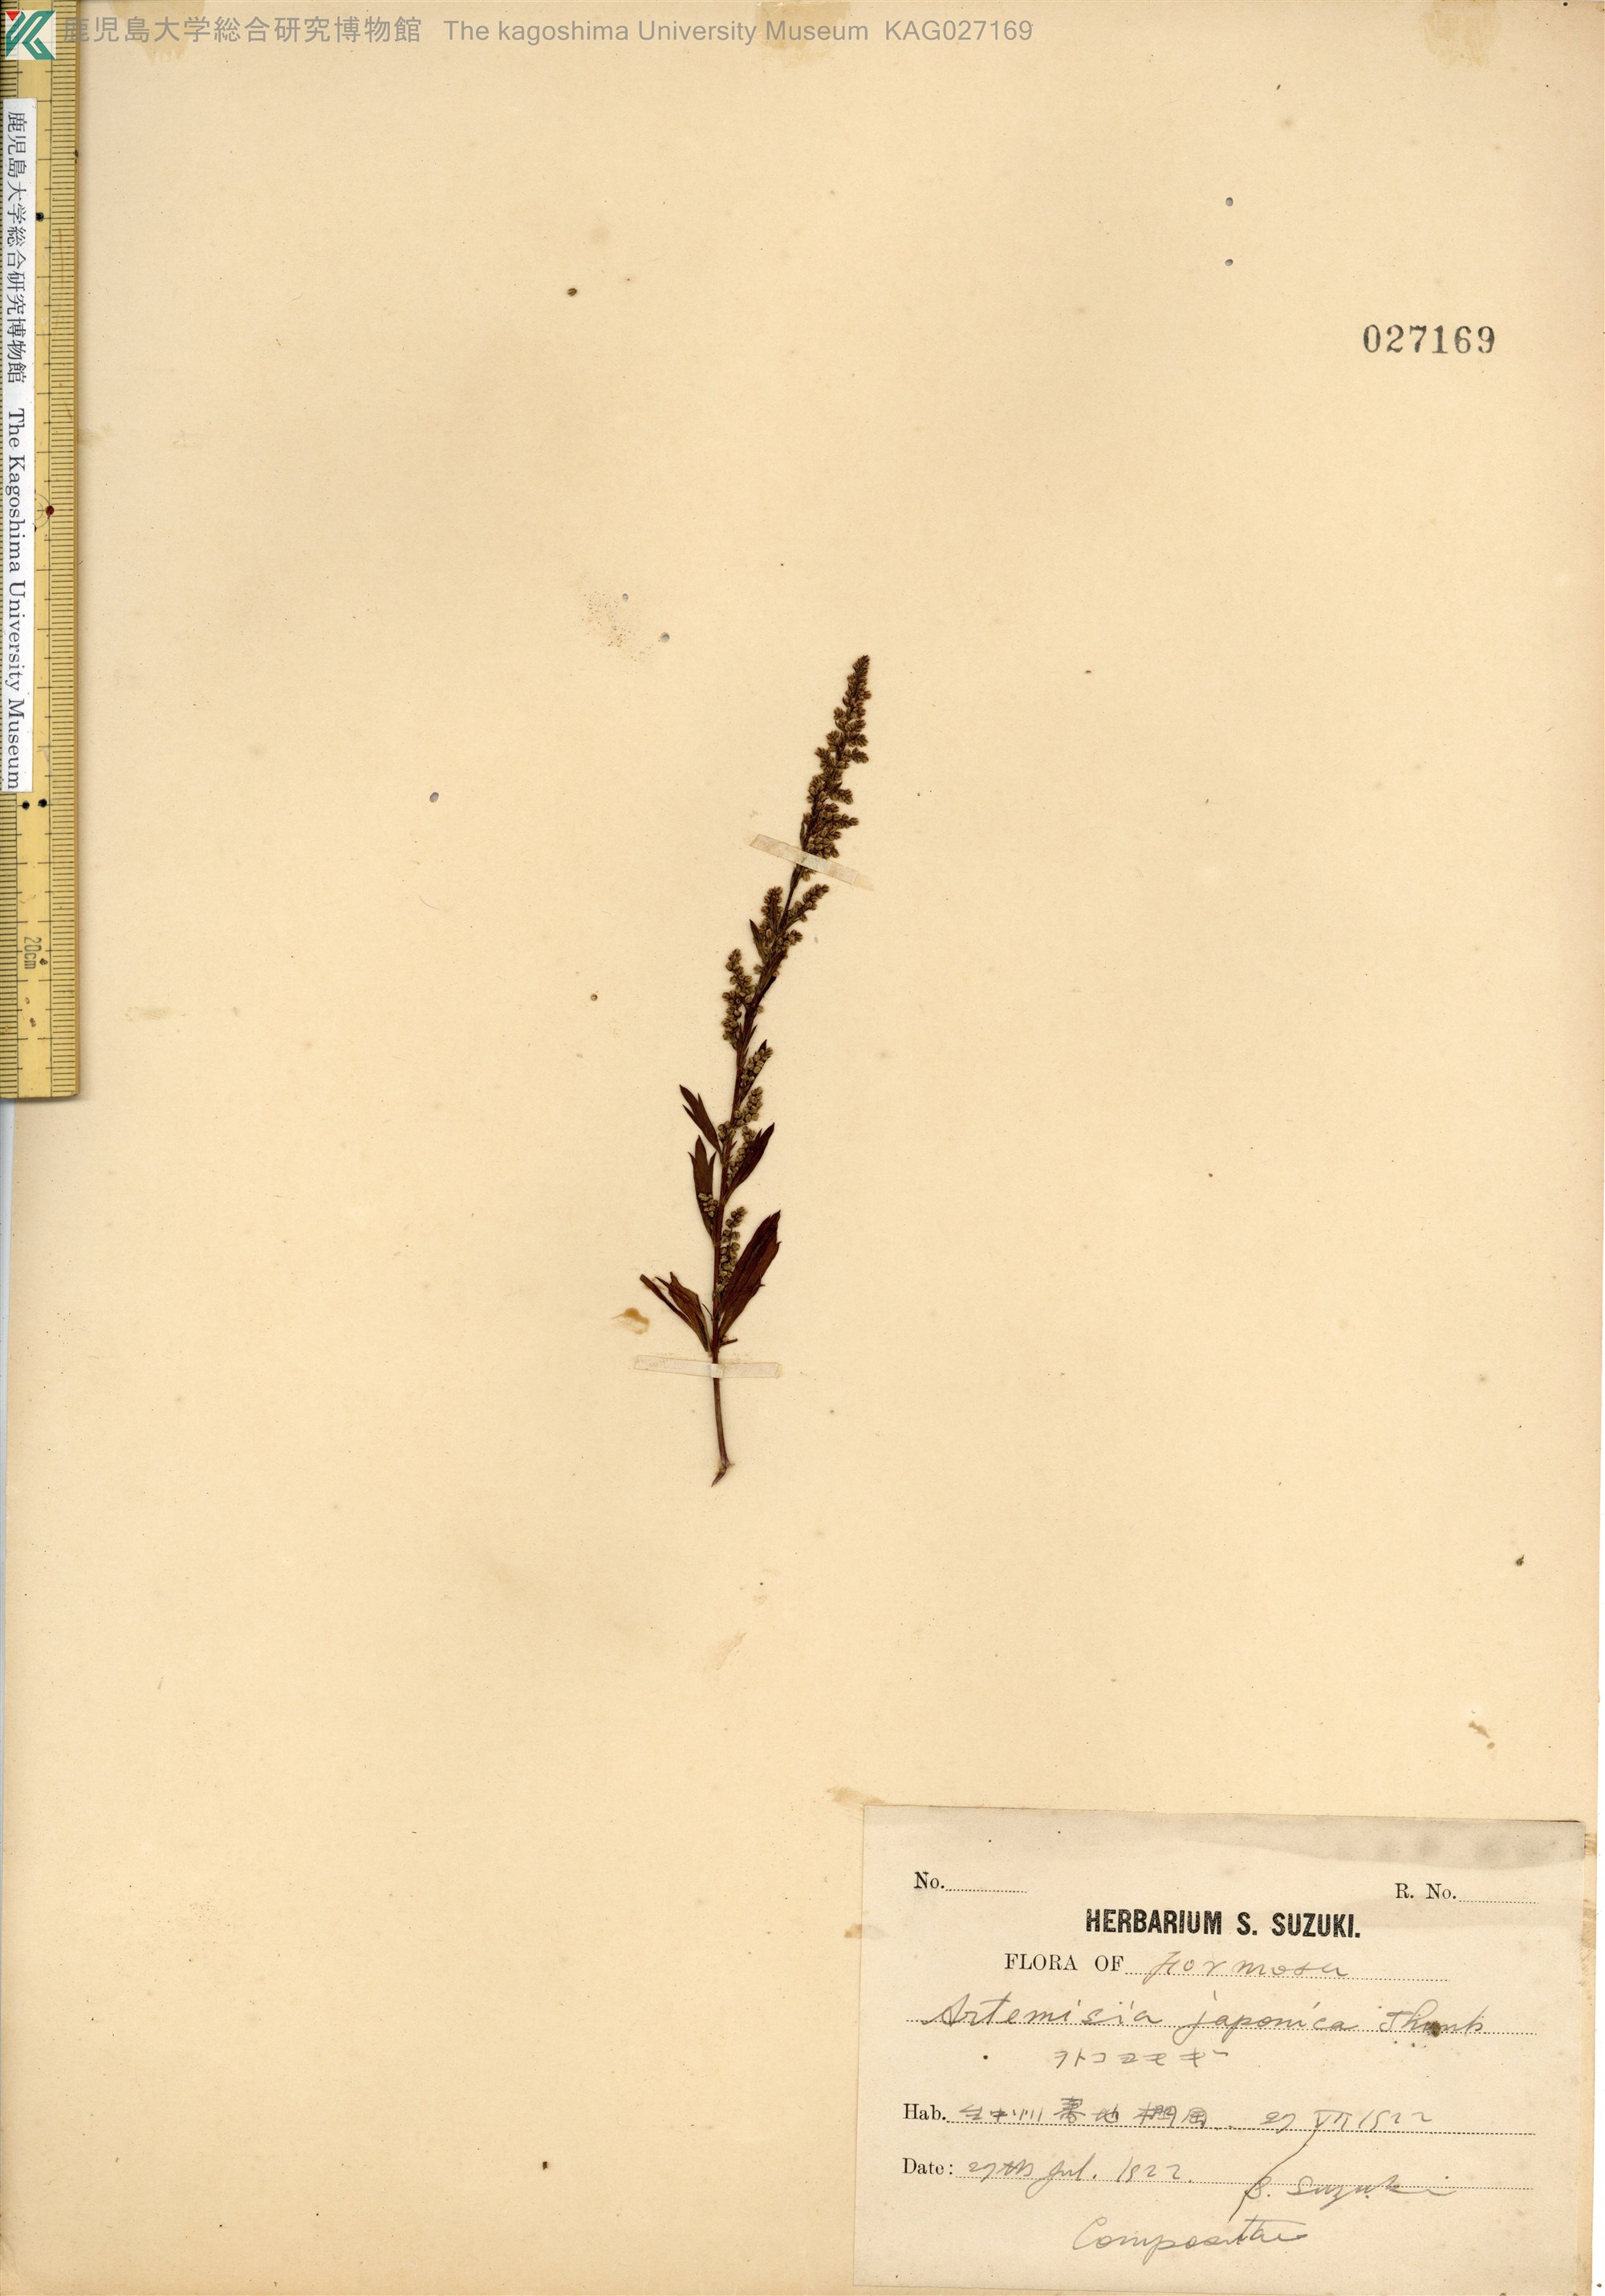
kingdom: Plantae
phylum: Tracheophyta
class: Magnoliopsida
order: Asterales
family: Asteraceae
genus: Artemisia
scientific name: Artemisia japonica
